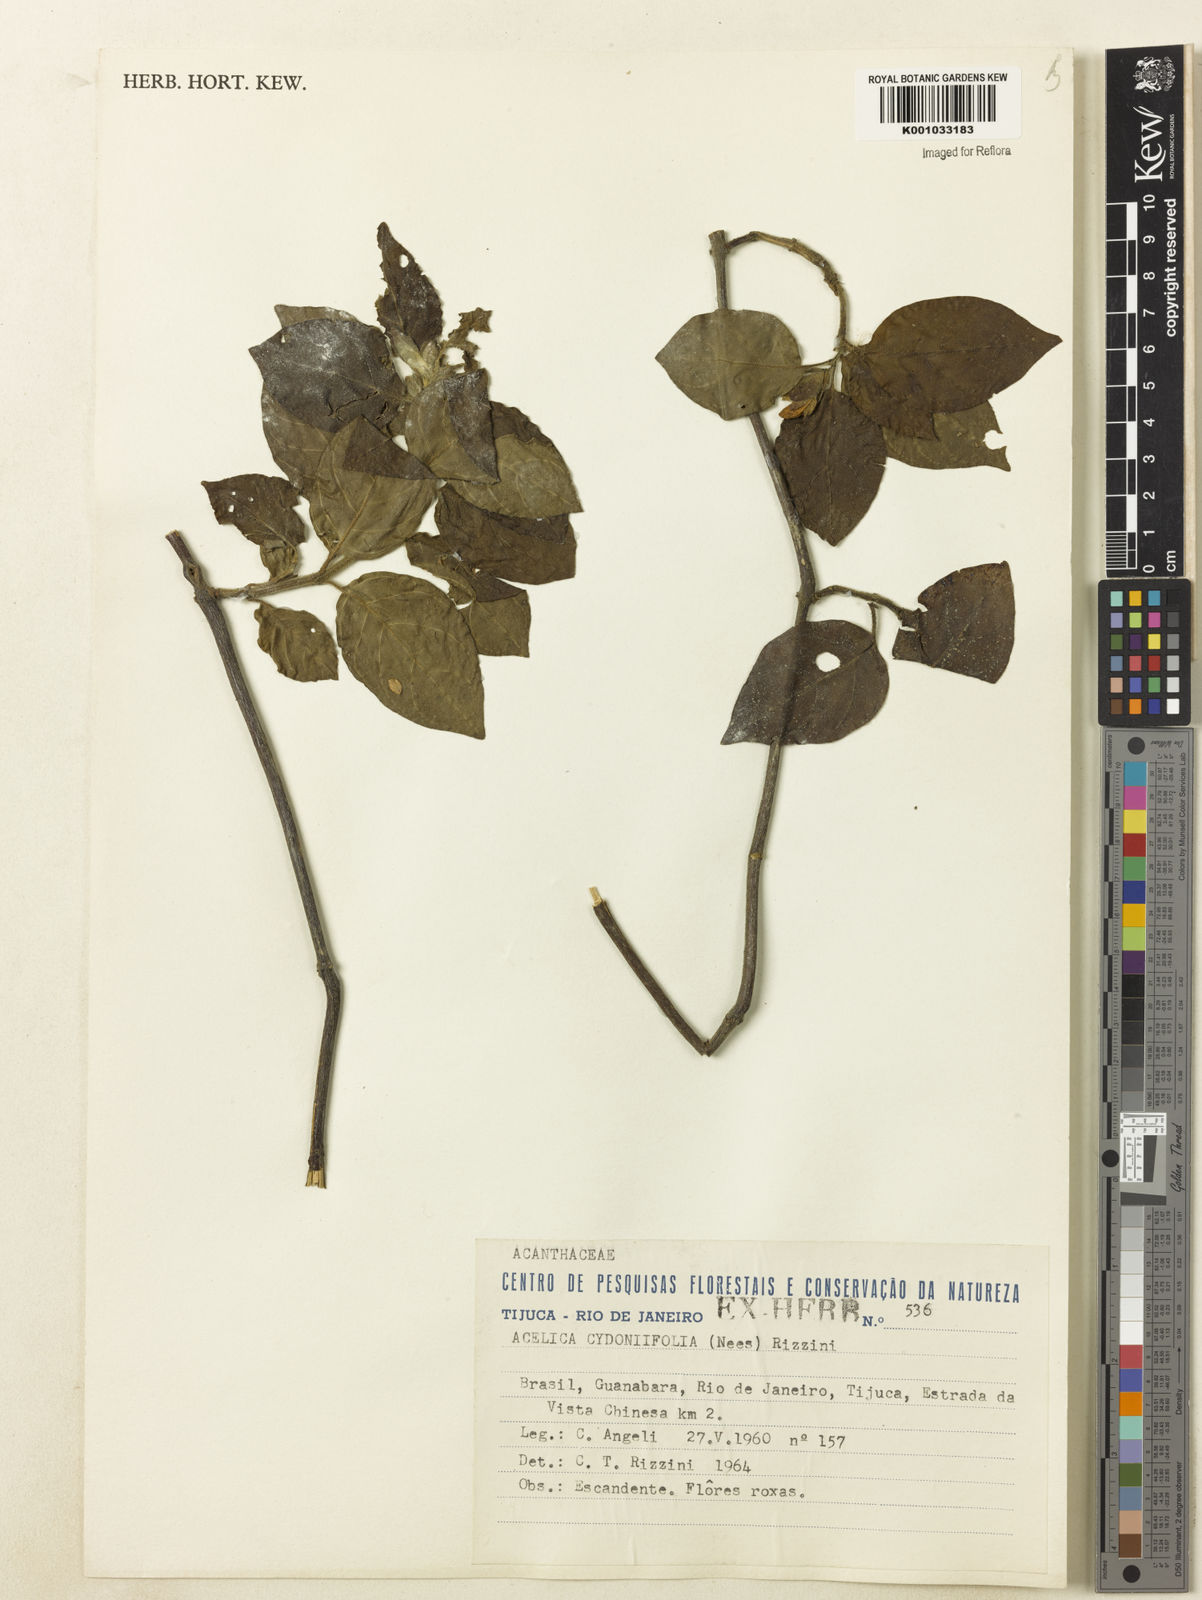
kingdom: Plantae
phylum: Tracheophyta
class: Magnoliopsida
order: Lamiales
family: Acanthaceae
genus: Justicia
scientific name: Justicia
